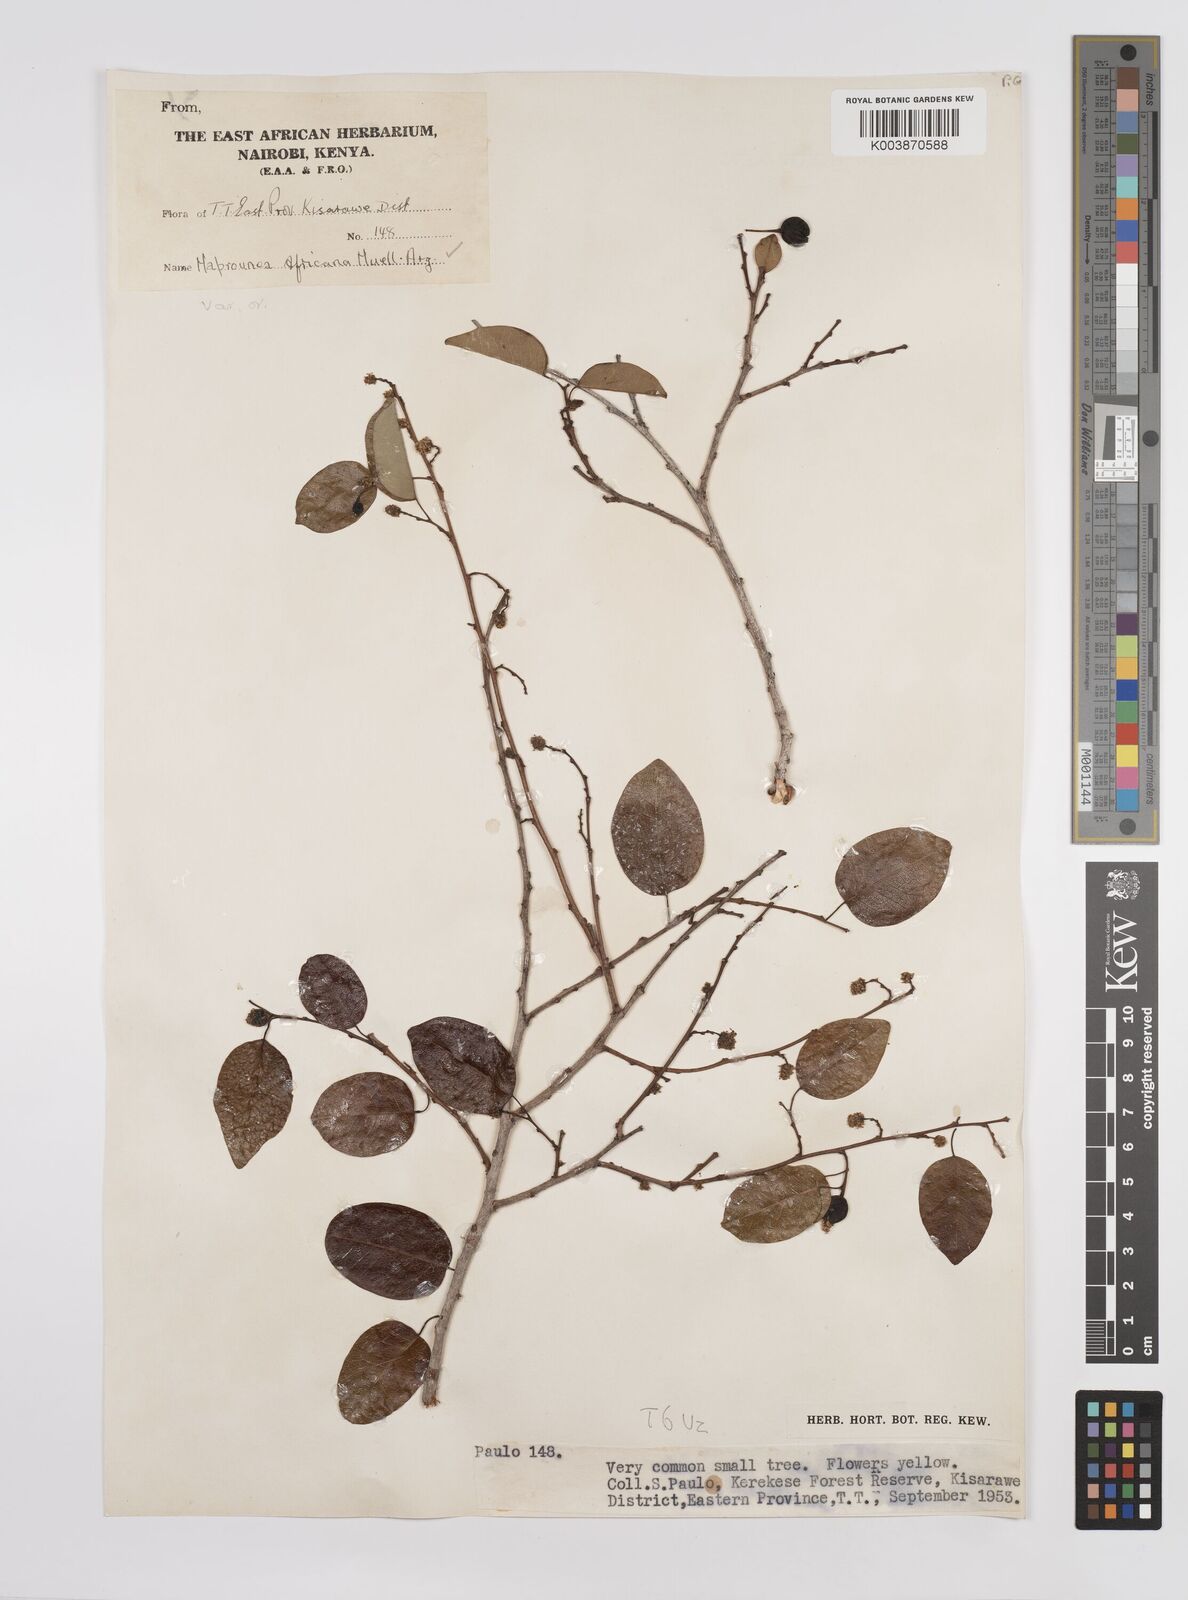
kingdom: Plantae
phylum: Tracheophyta
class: Magnoliopsida
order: Malpighiales
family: Euphorbiaceae
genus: Maprounea
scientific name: Maprounea africana
